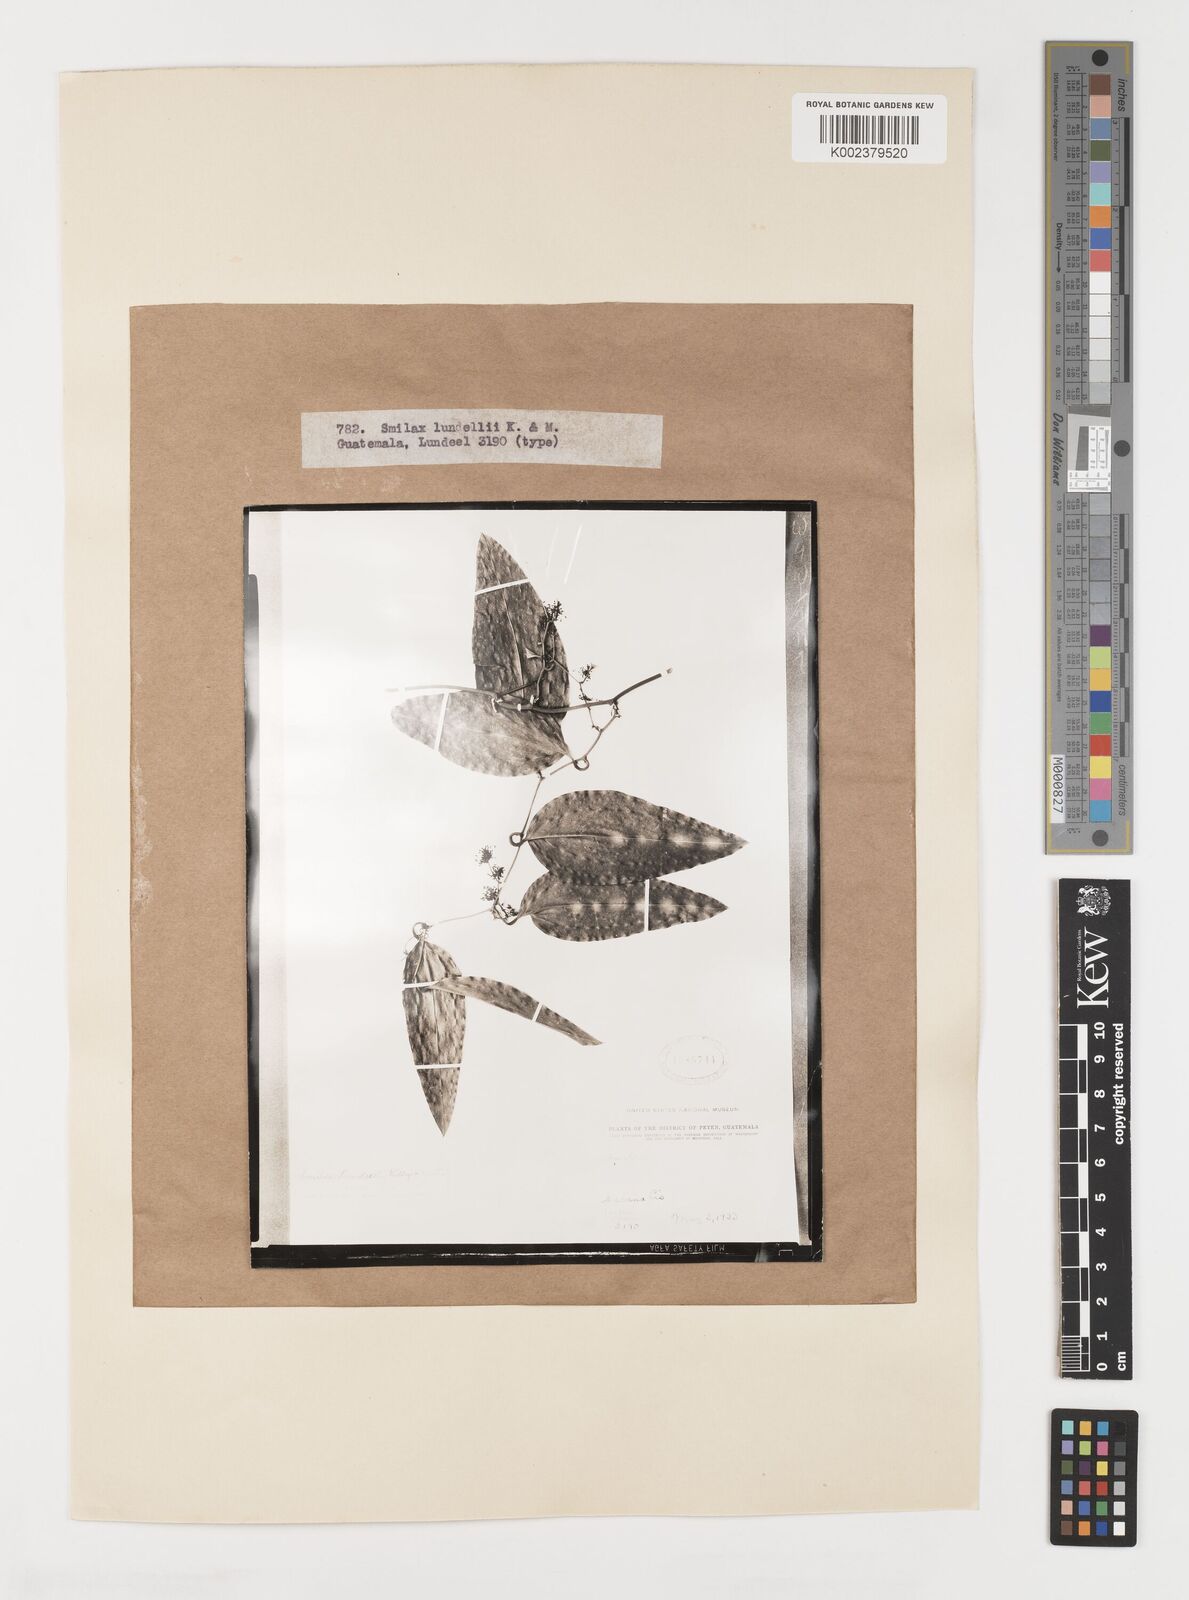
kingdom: Plantae
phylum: Tracheophyta
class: Liliopsida
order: Liliales
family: Smilacaceae
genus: Smilax
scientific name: Smilax spinosa
